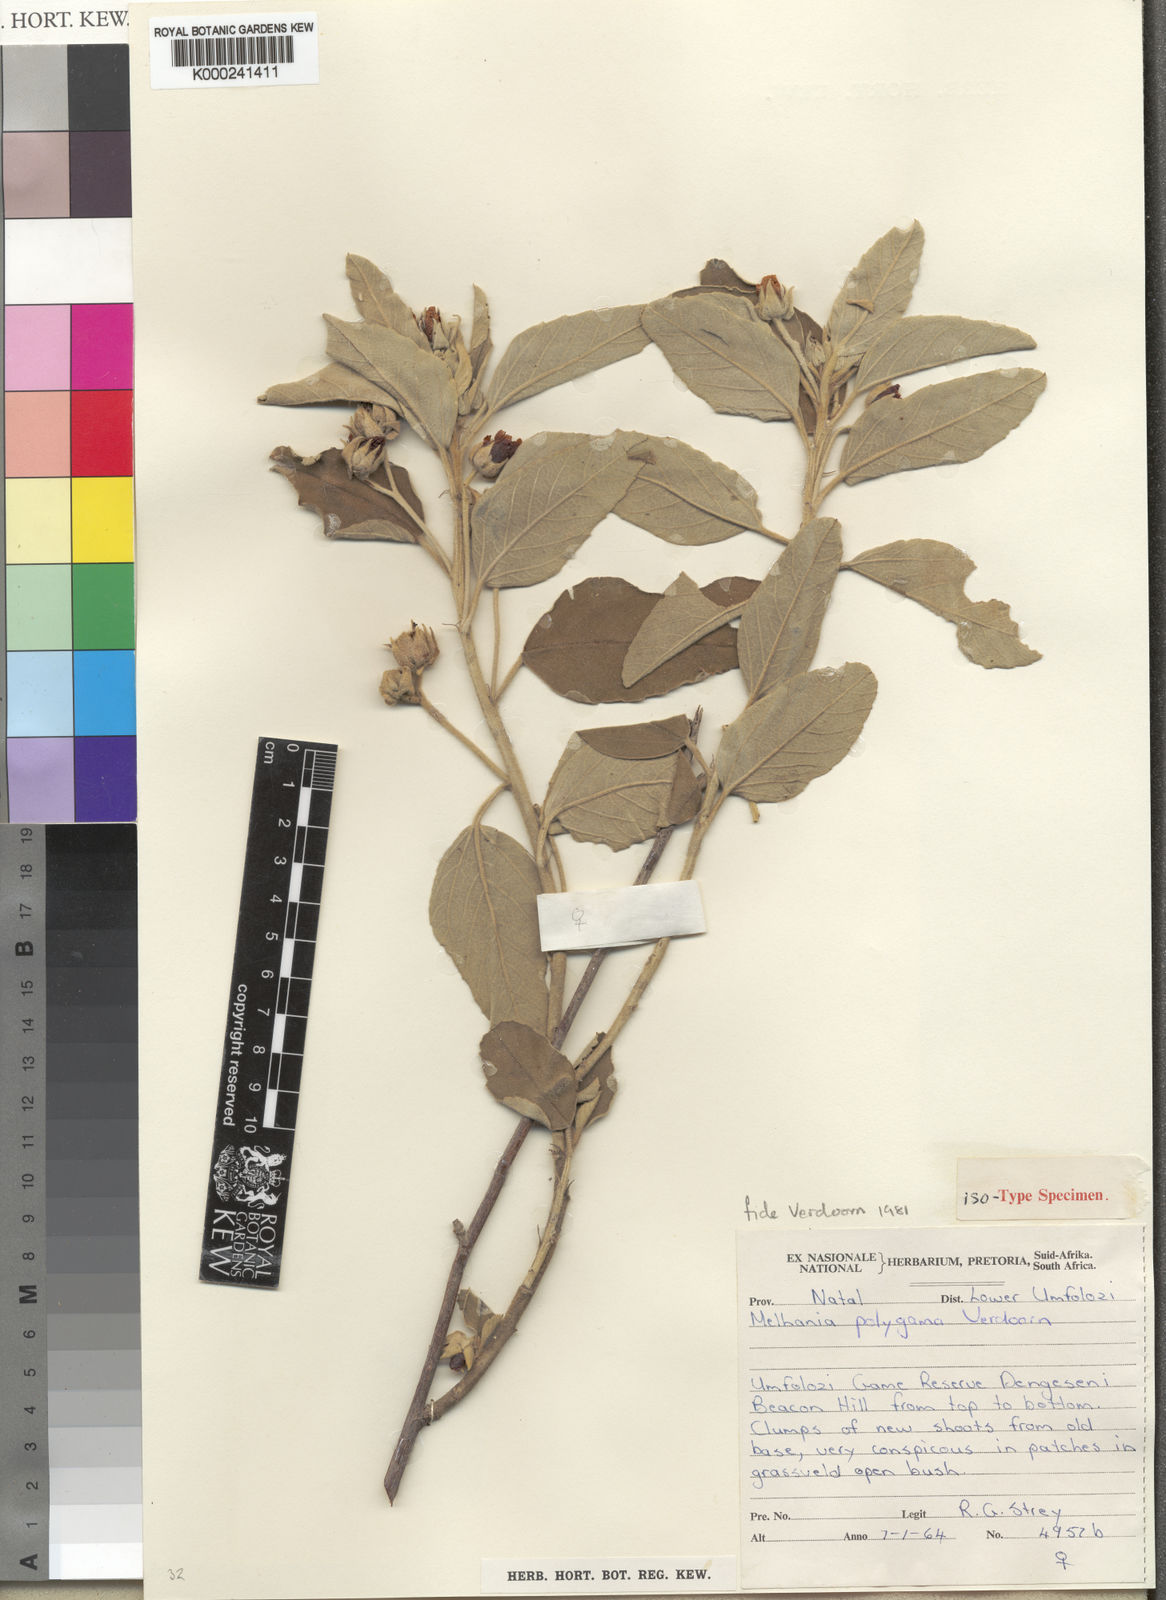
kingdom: Plantae
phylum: Tracheophyta
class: Magnoliopsida
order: Malvales
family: Malvaceae
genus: Melhania
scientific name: Melhania polygama
